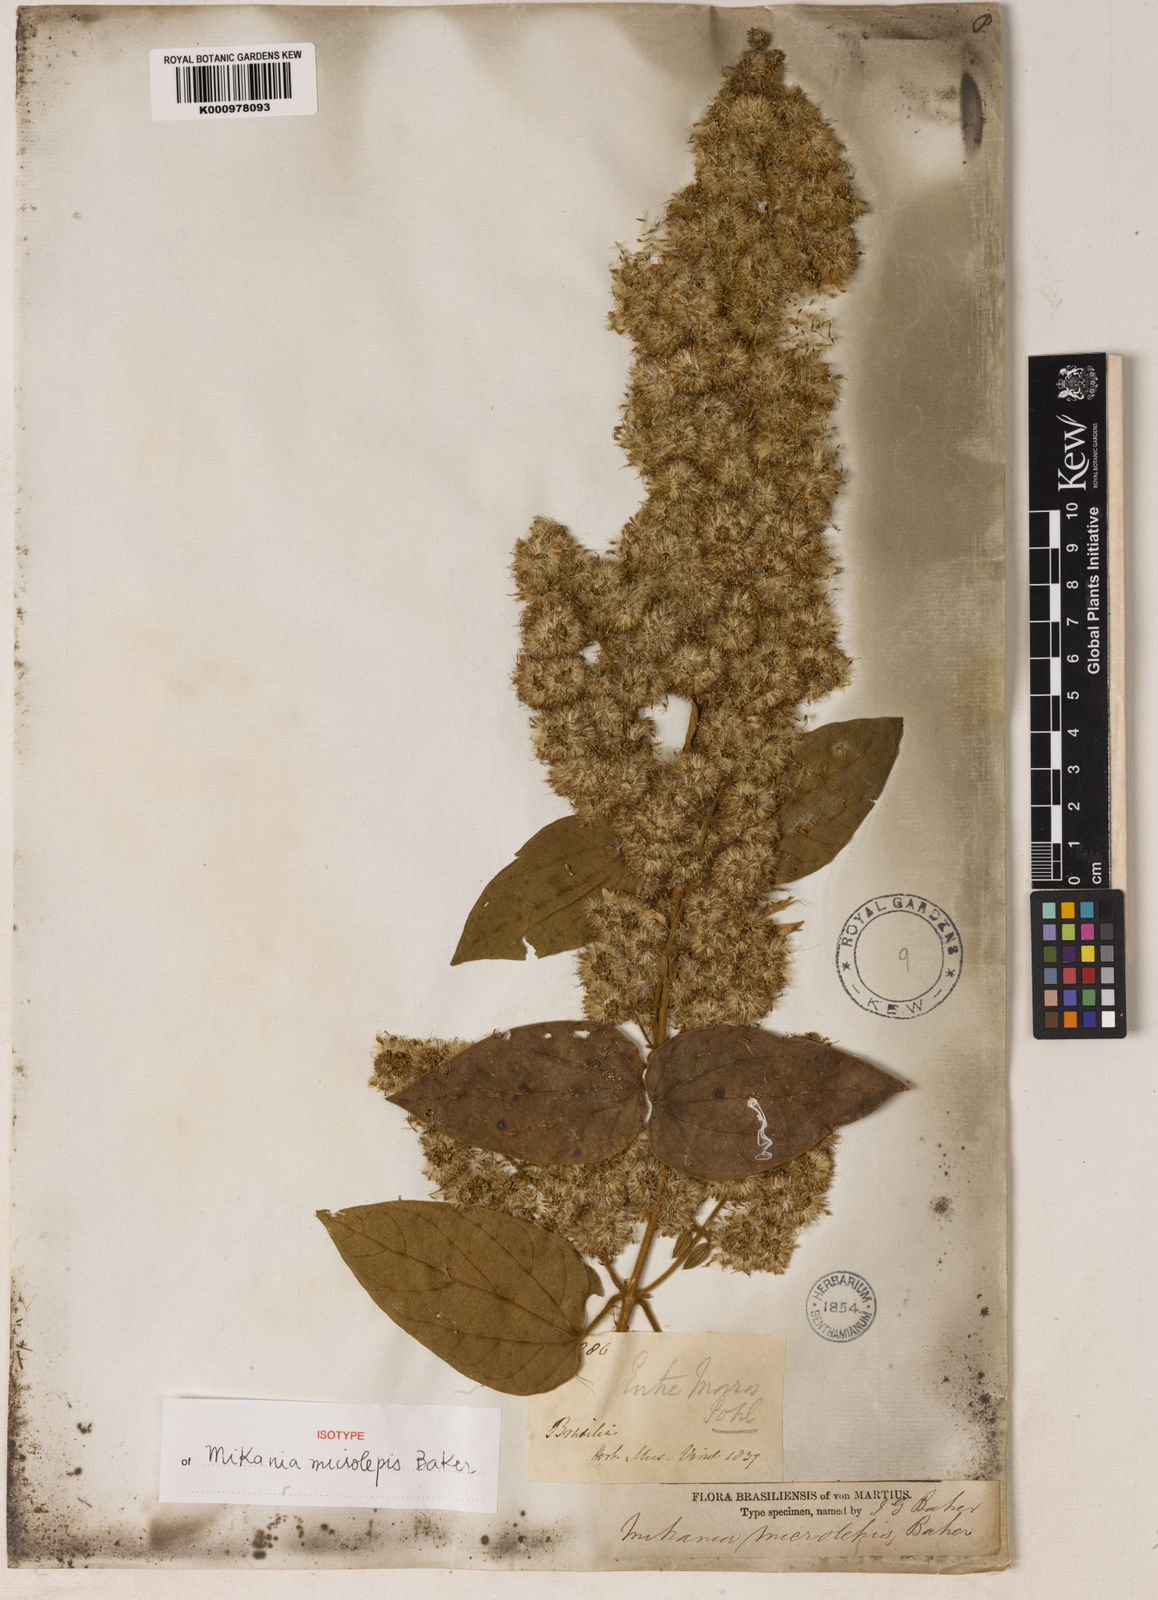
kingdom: Plantae
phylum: Tracheophyta
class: Magnoliopsida
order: Asterales
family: Asteraceae
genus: Mikania
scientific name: Mikania microlepis
